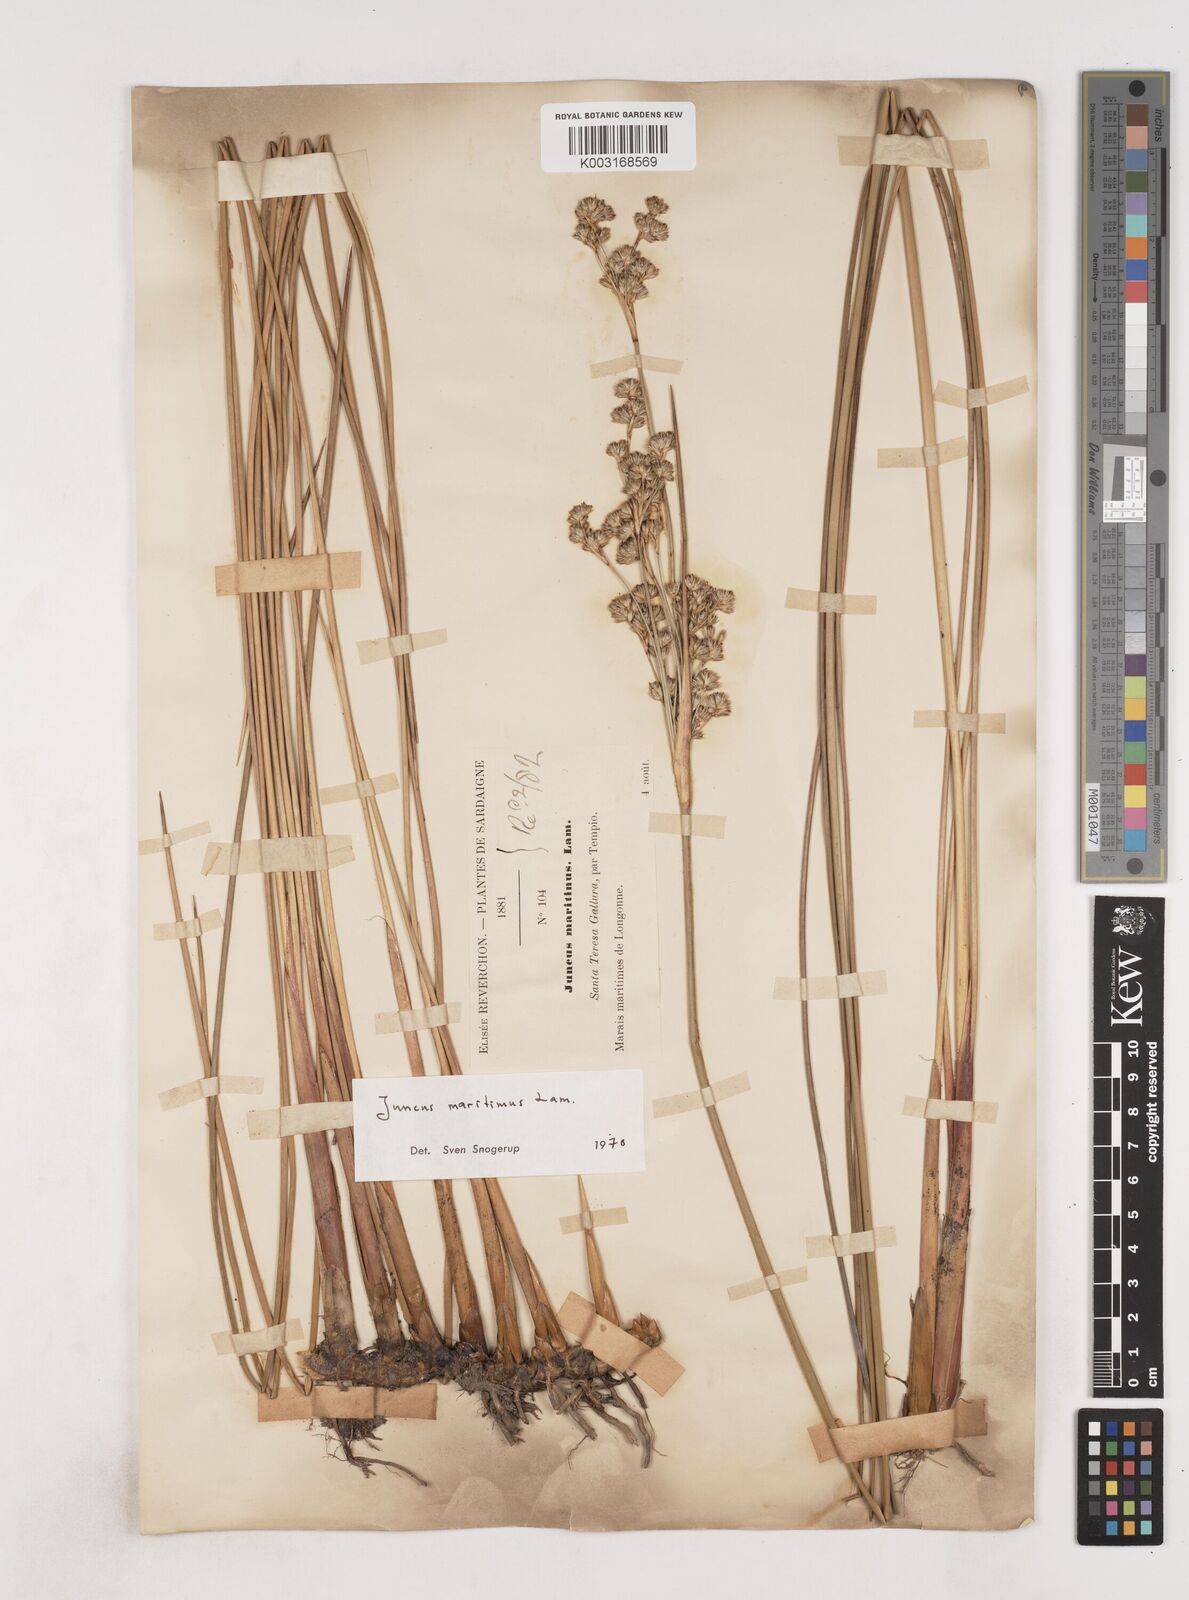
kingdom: Plantae
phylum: Tracheophyta
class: Liliopsida
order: Poales
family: Juncaceae
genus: Juncus
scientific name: Juncus maritimus
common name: Sea rush
